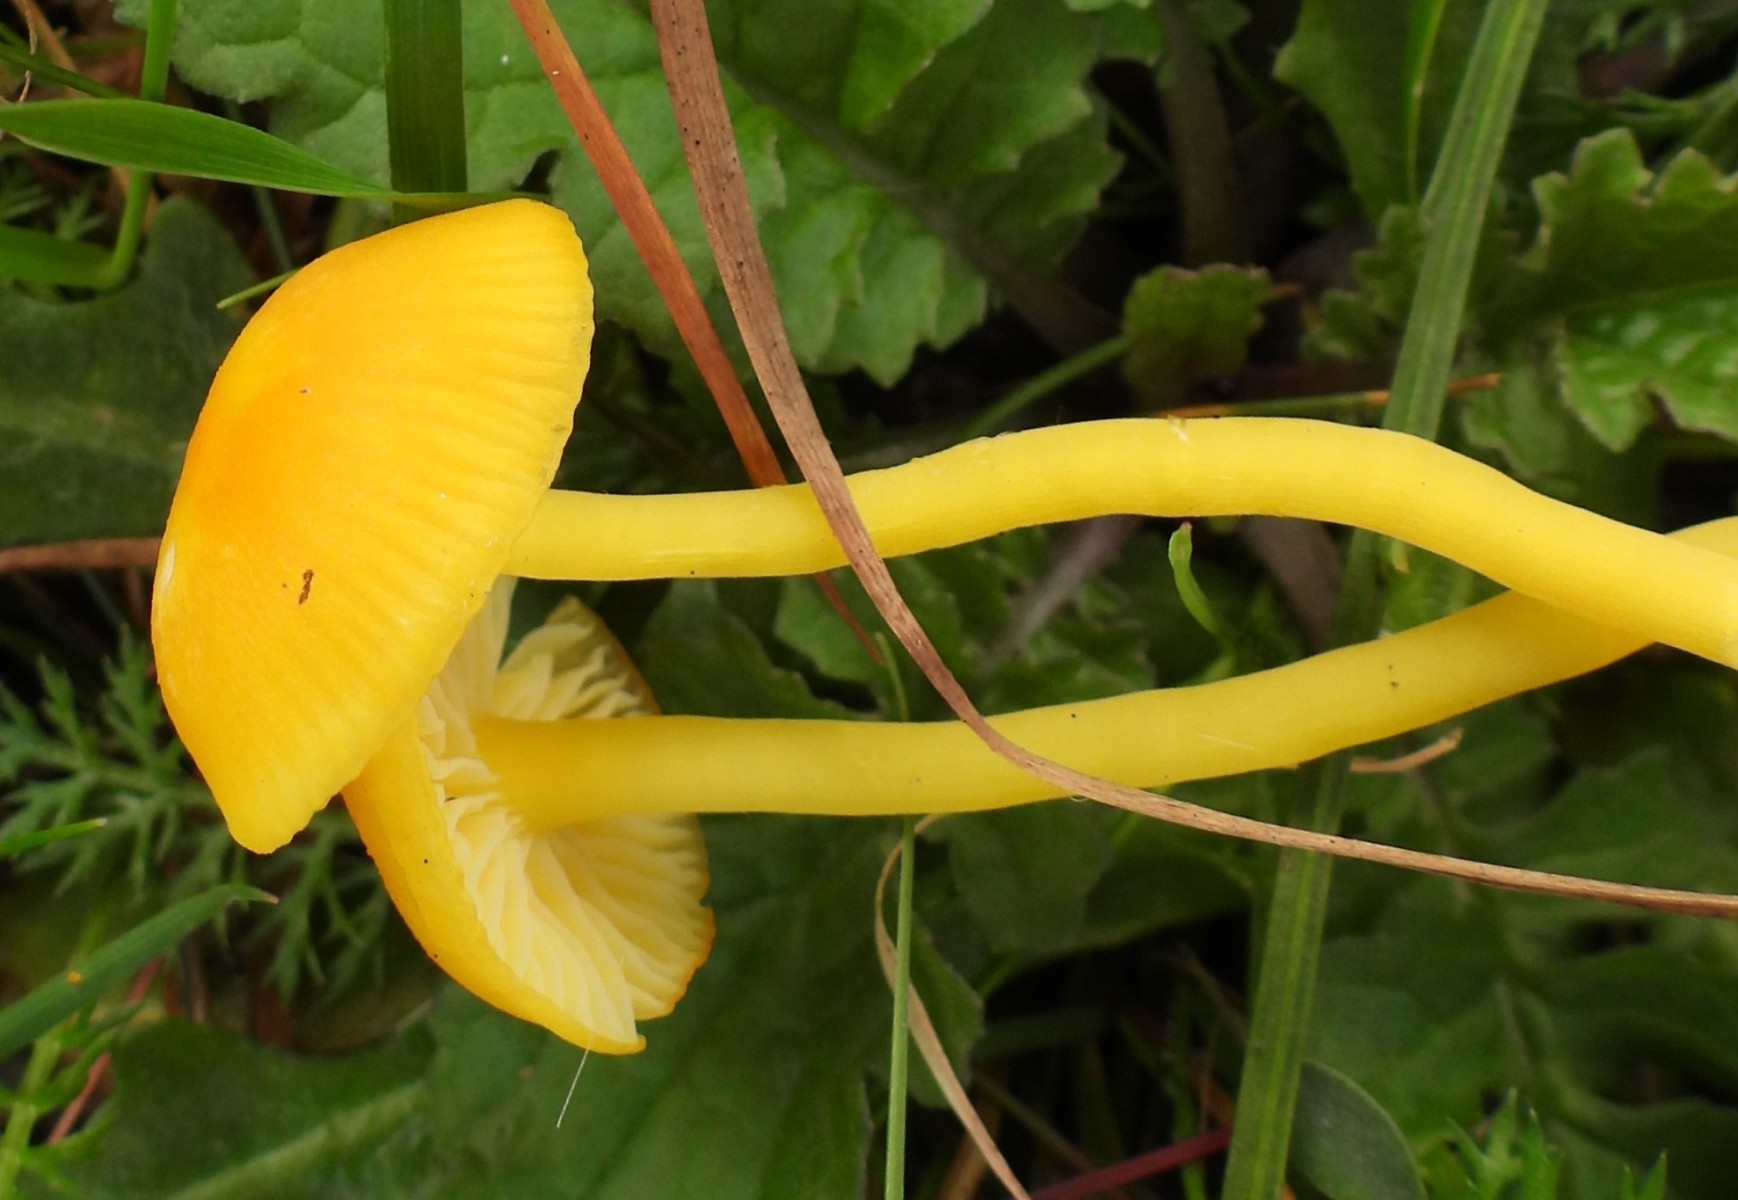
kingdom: Fungi
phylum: Basidiomycota
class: Agaricomycetes
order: Agaricales
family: Hygrophoraceae
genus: Hygrocybe
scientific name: Hygrocybe ceracea
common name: voksgul vokshat
